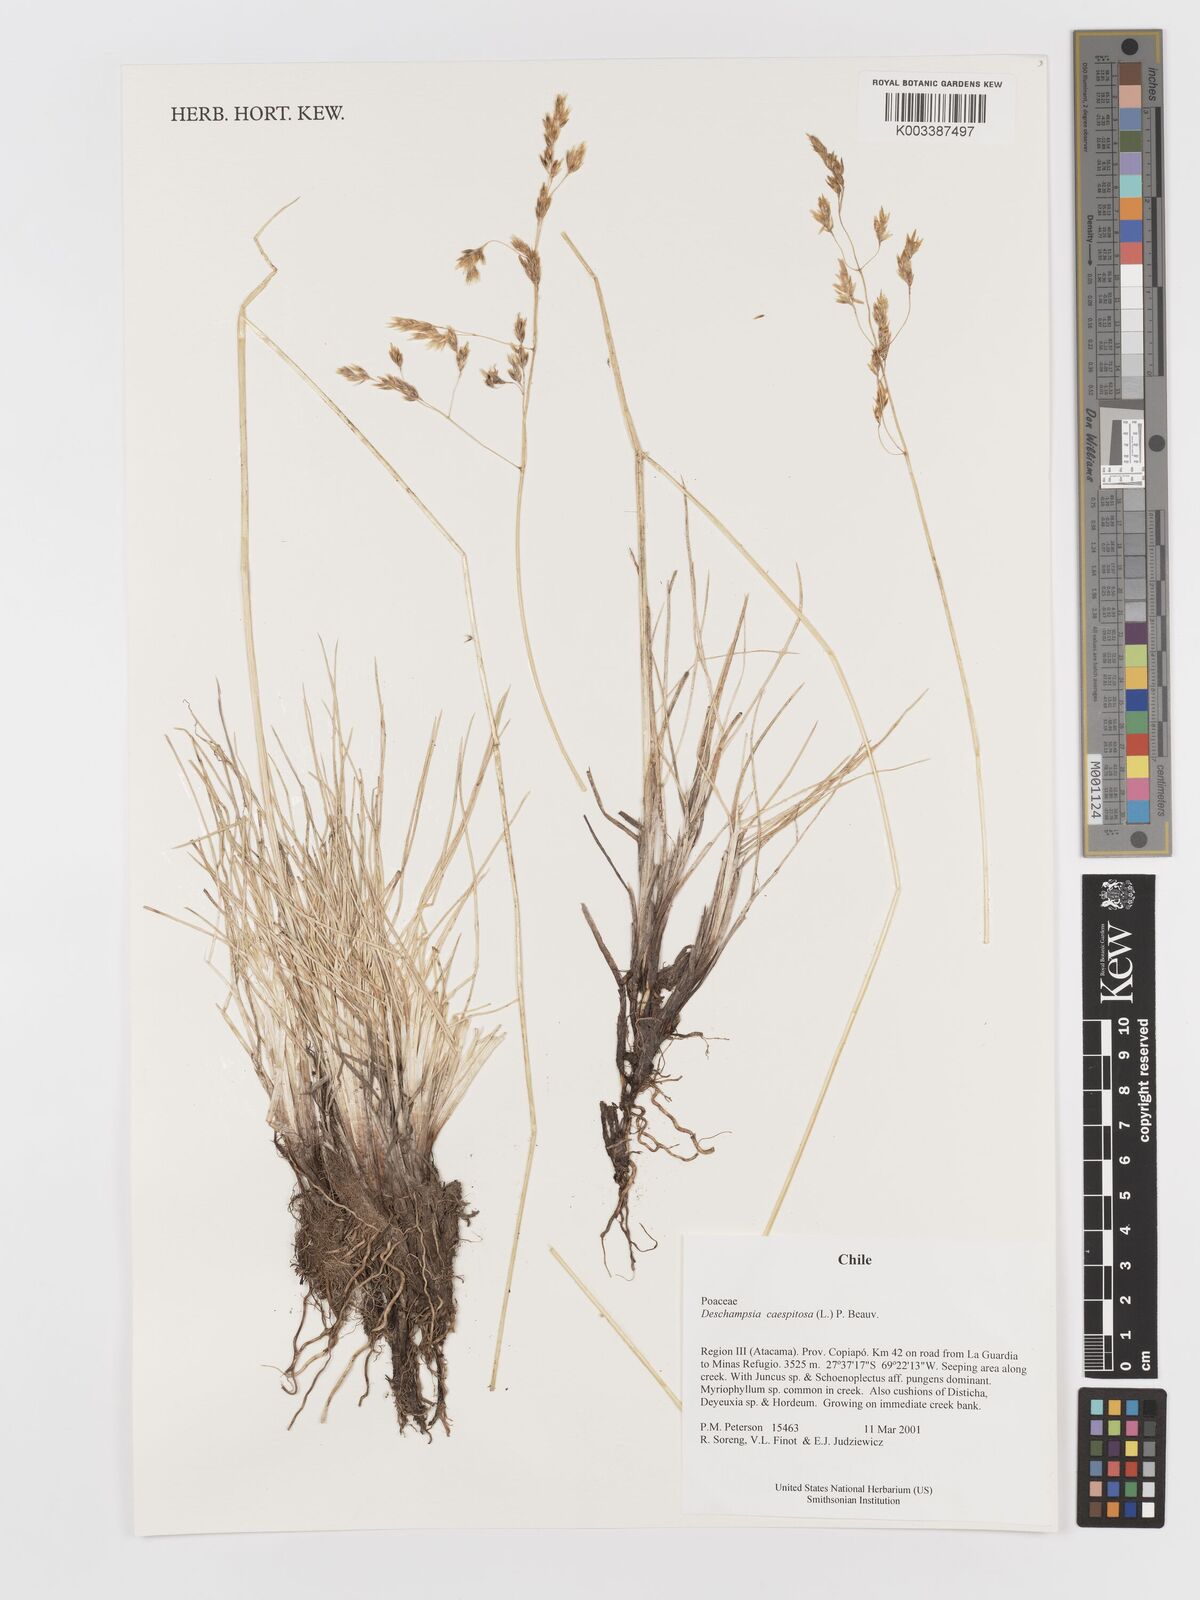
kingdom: Plantae
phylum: Tracheophyta
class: Liliopsida
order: Poales
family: Poaceae
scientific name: Poaceae
